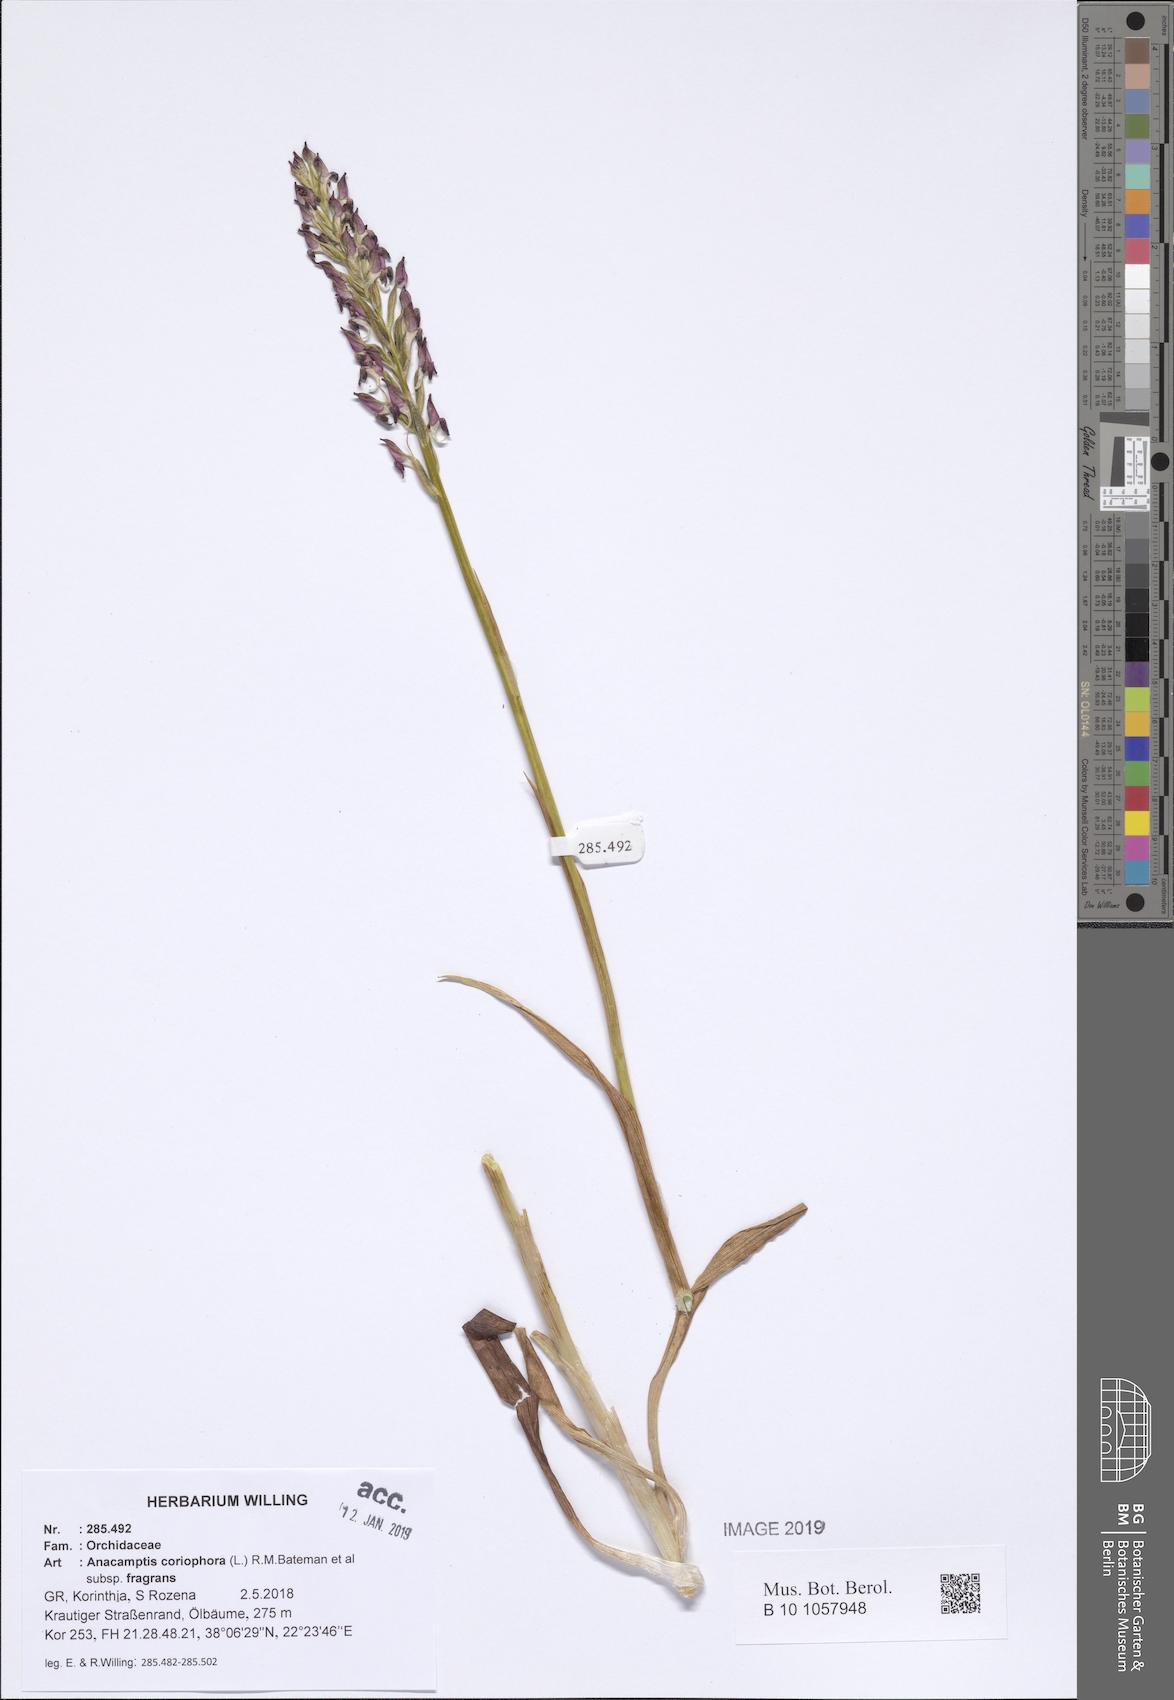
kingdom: Plantae
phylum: Tracheophyta
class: Liliopsida
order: Asparagales
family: Orchidaceae
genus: Anacamptis
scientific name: Anacamptis coriophora
